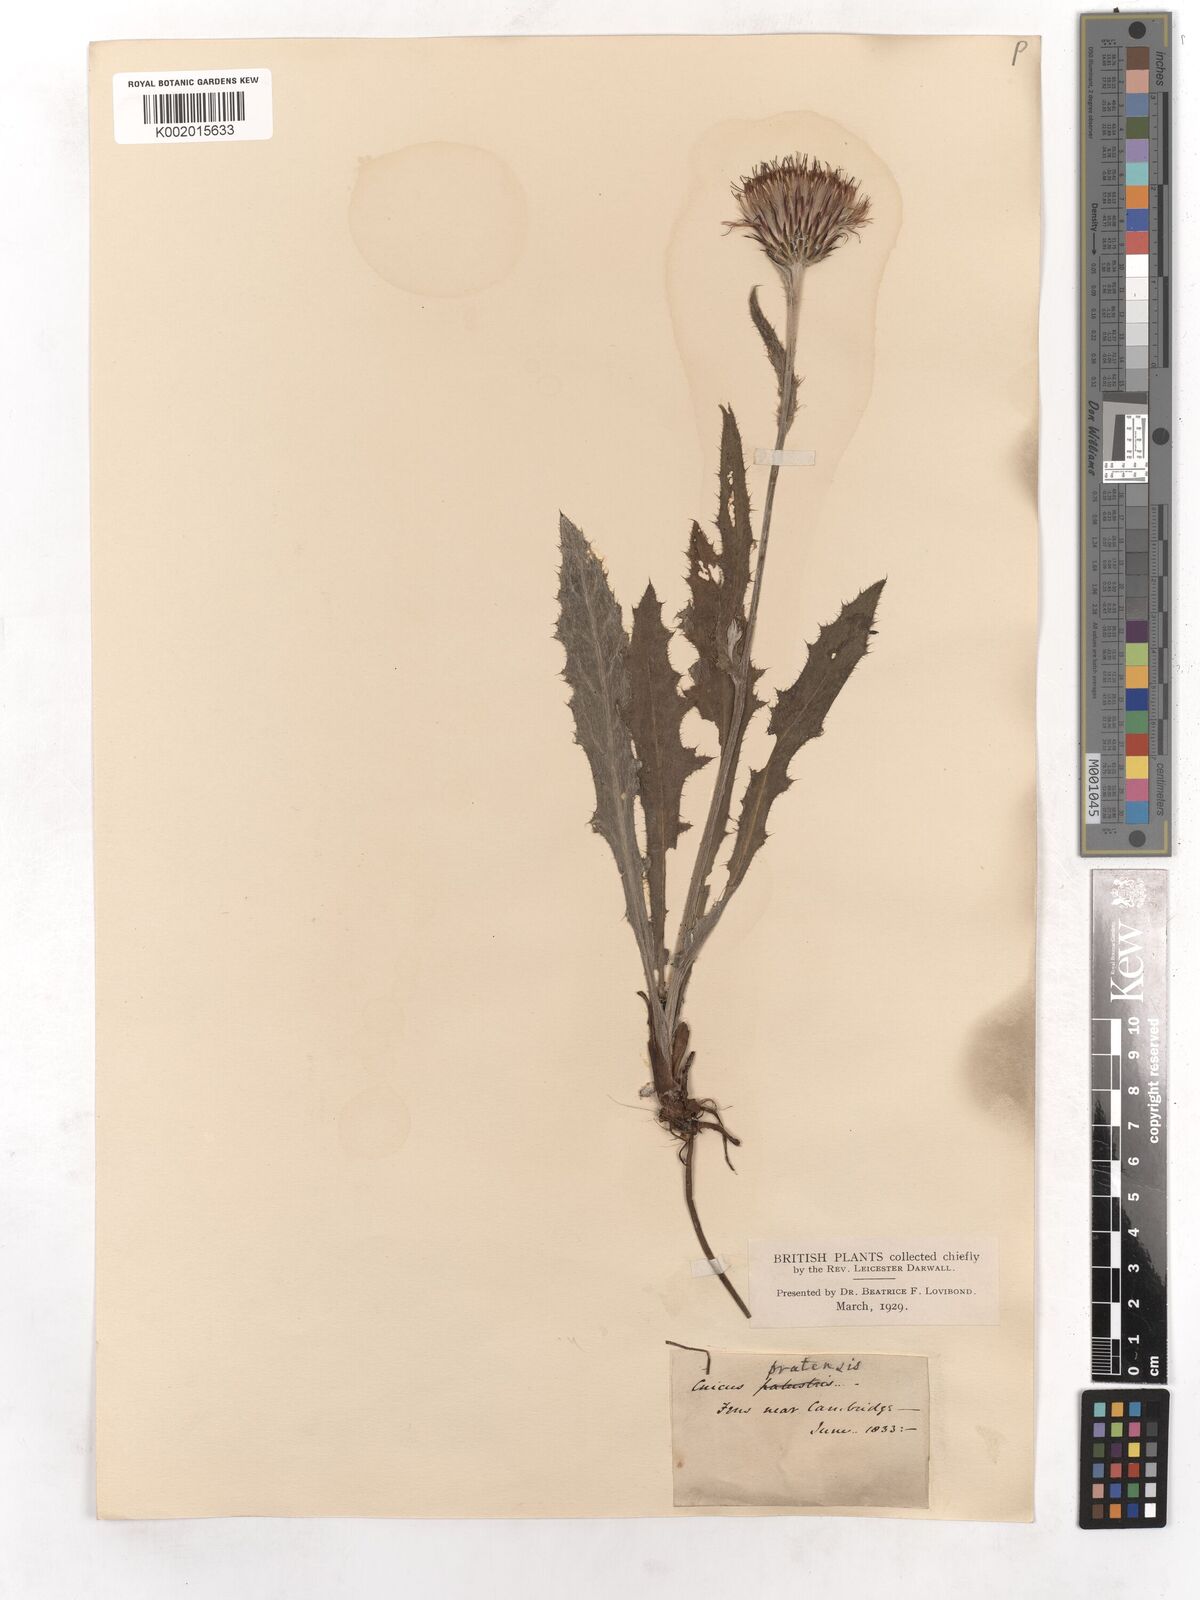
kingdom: Plantae
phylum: Tracheophyta
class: Magnoliopsida
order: Asterales
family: Asteraceae
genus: Cirsium
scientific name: Cirsium dissectum
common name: Meadow thistle
